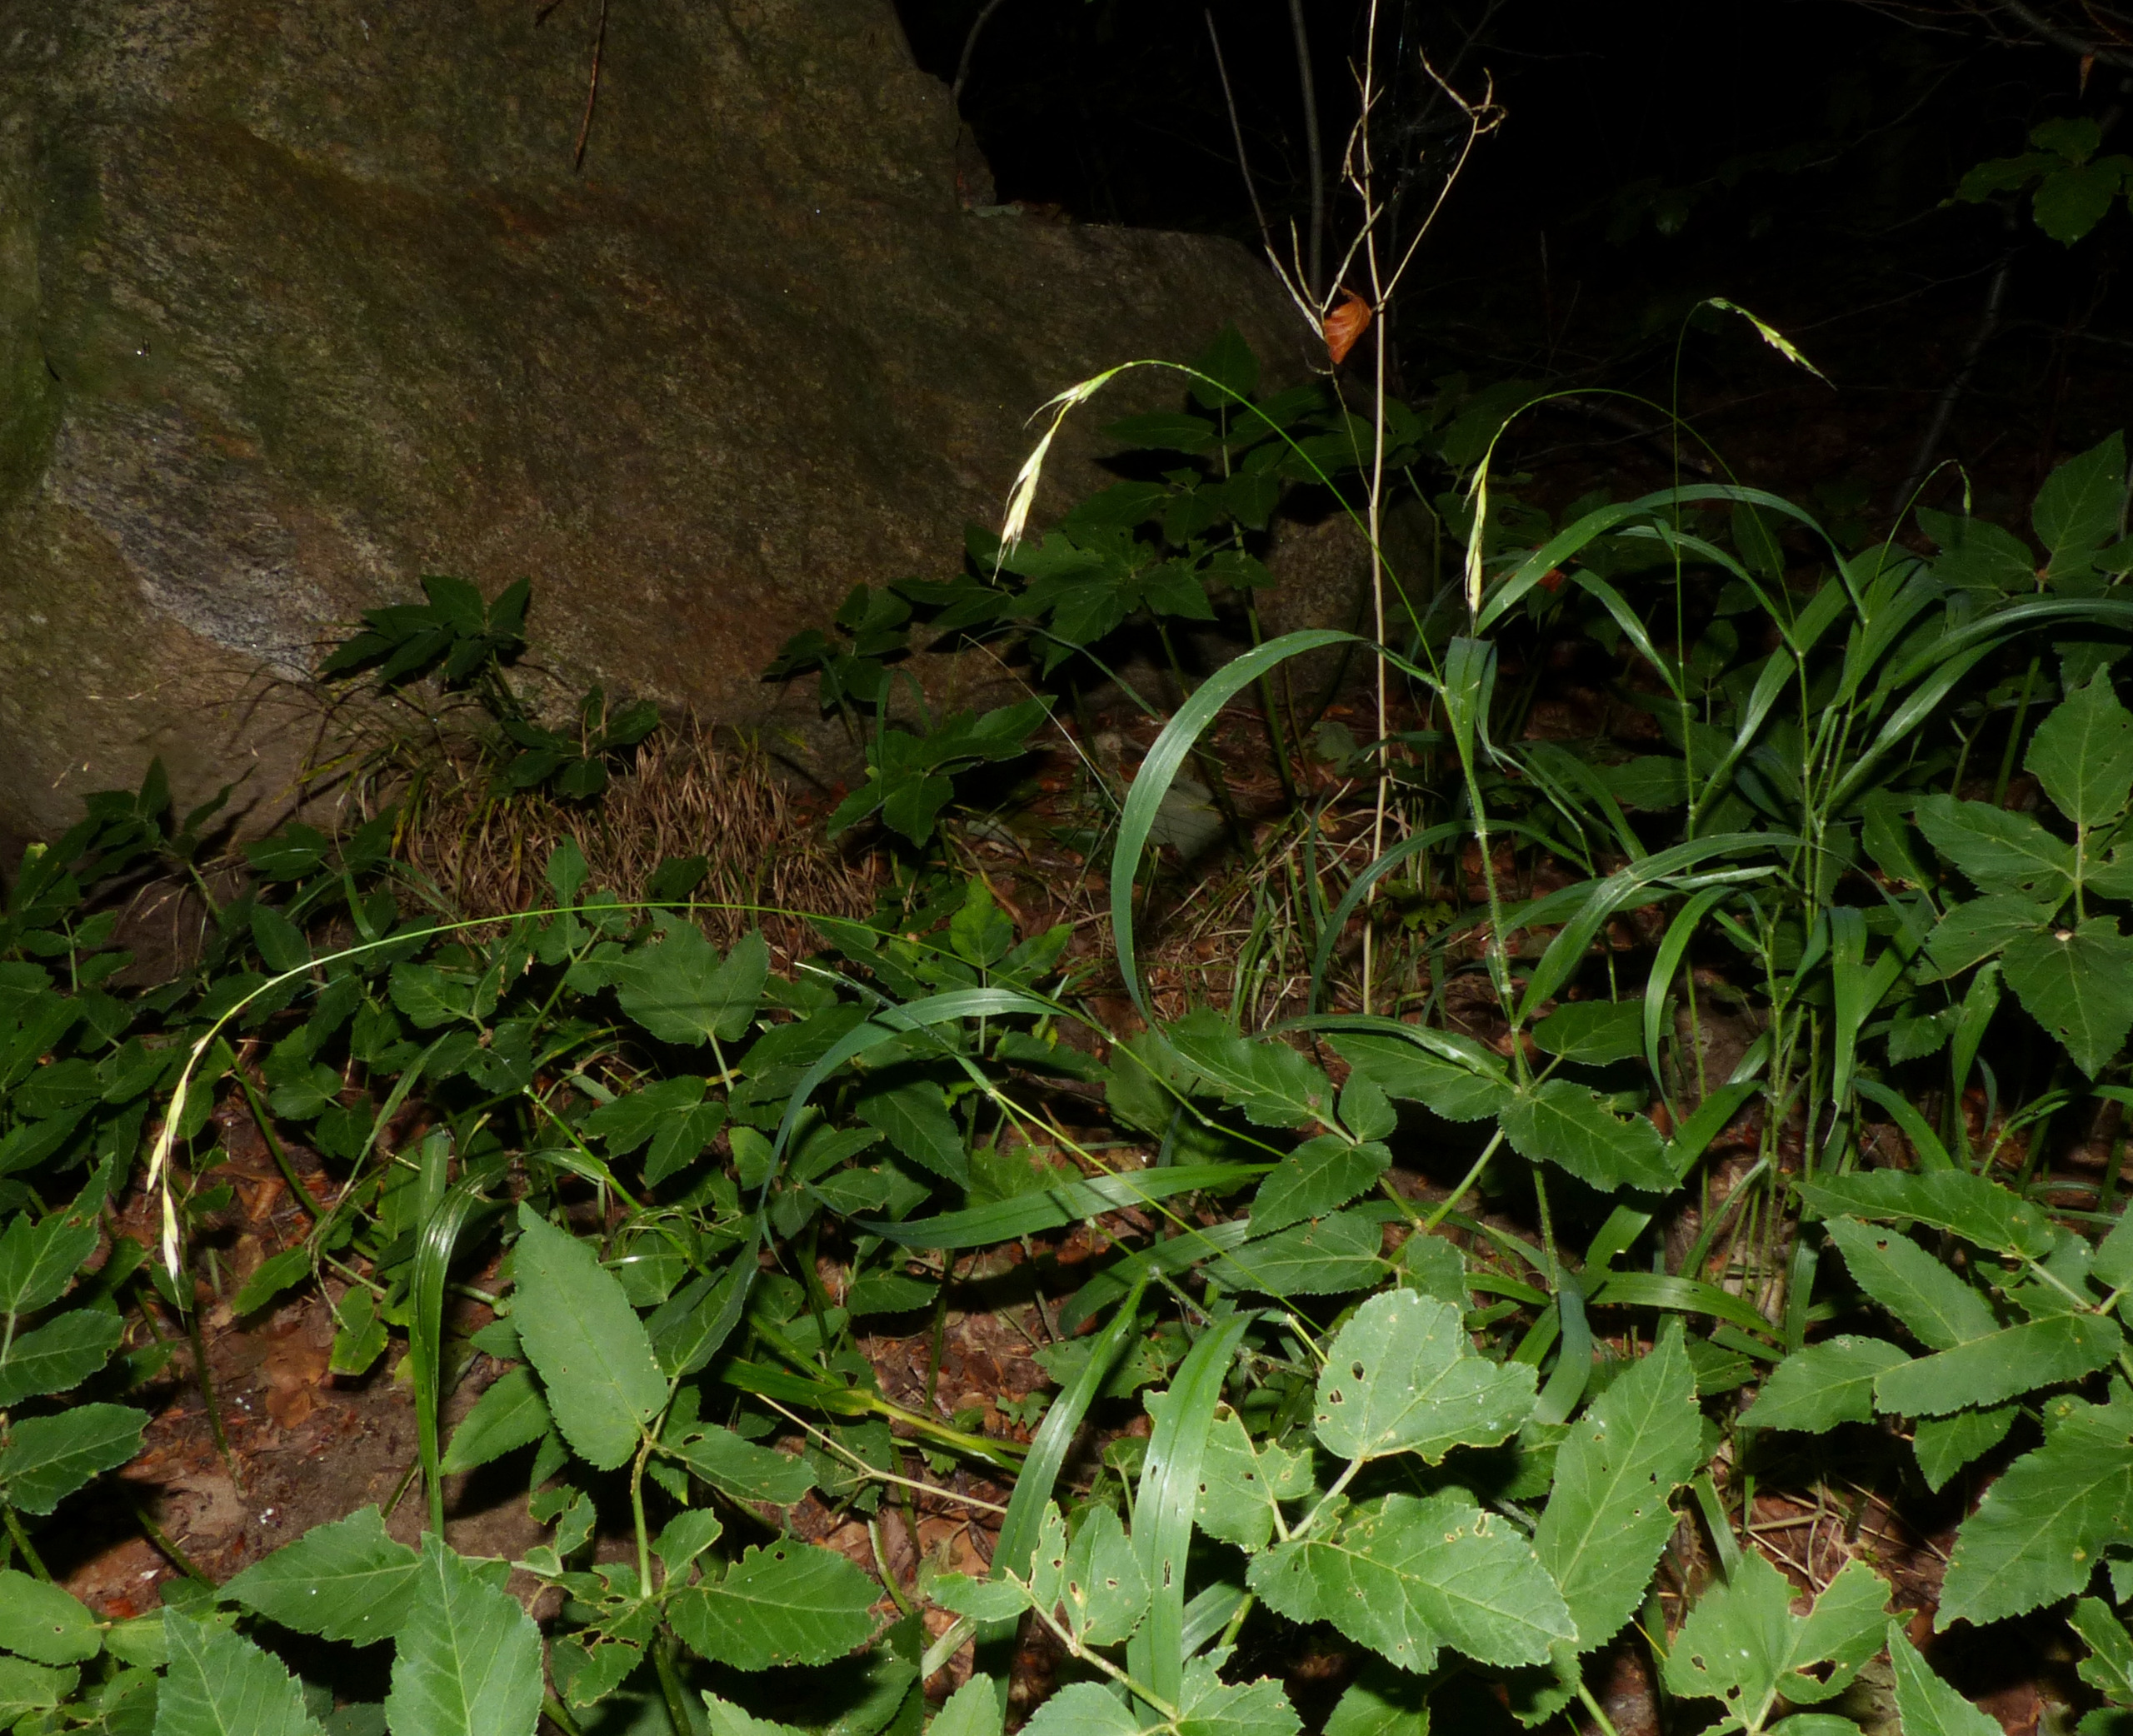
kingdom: Plantae
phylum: Tracheophyta
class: Liliopsida
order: Poales
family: Poaceae
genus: Brachypodium
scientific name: Brachypodium sylvaticum
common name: Skov-stilkaks
